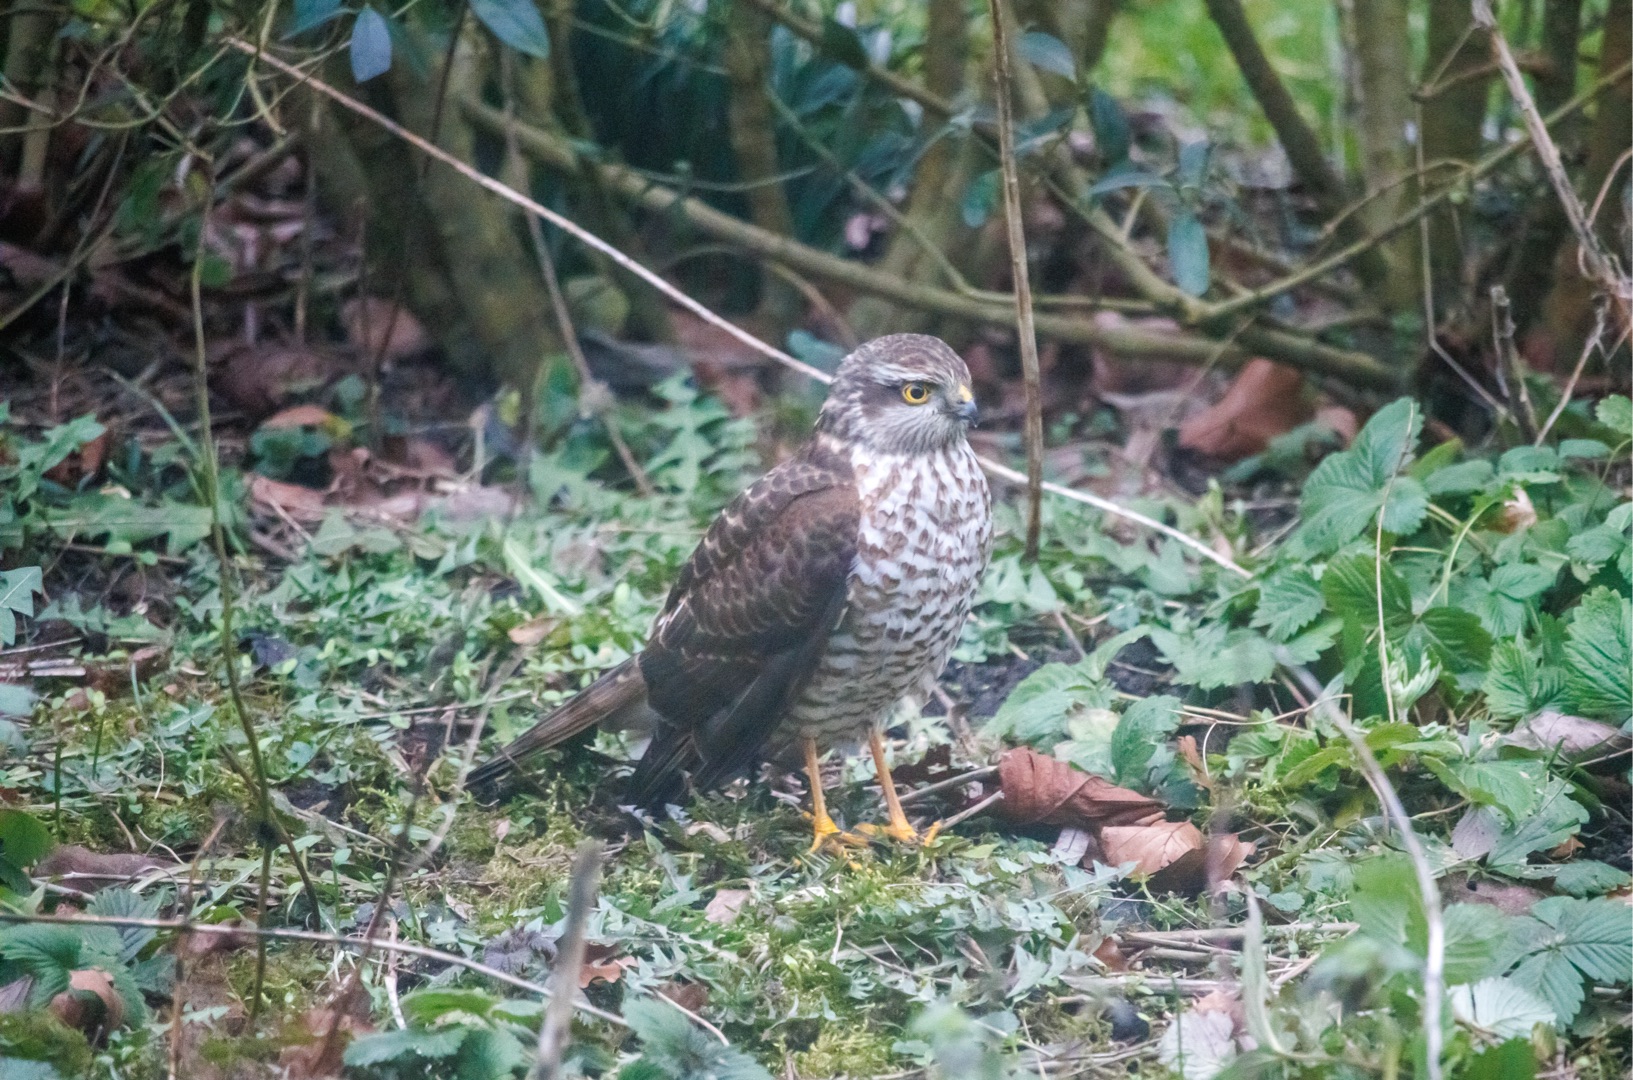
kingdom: Animalia
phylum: Chordata
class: Aves
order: Accipitriformes
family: Accipitridae
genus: Accipiter
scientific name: Accipiter nisus
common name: Spurvehøg
